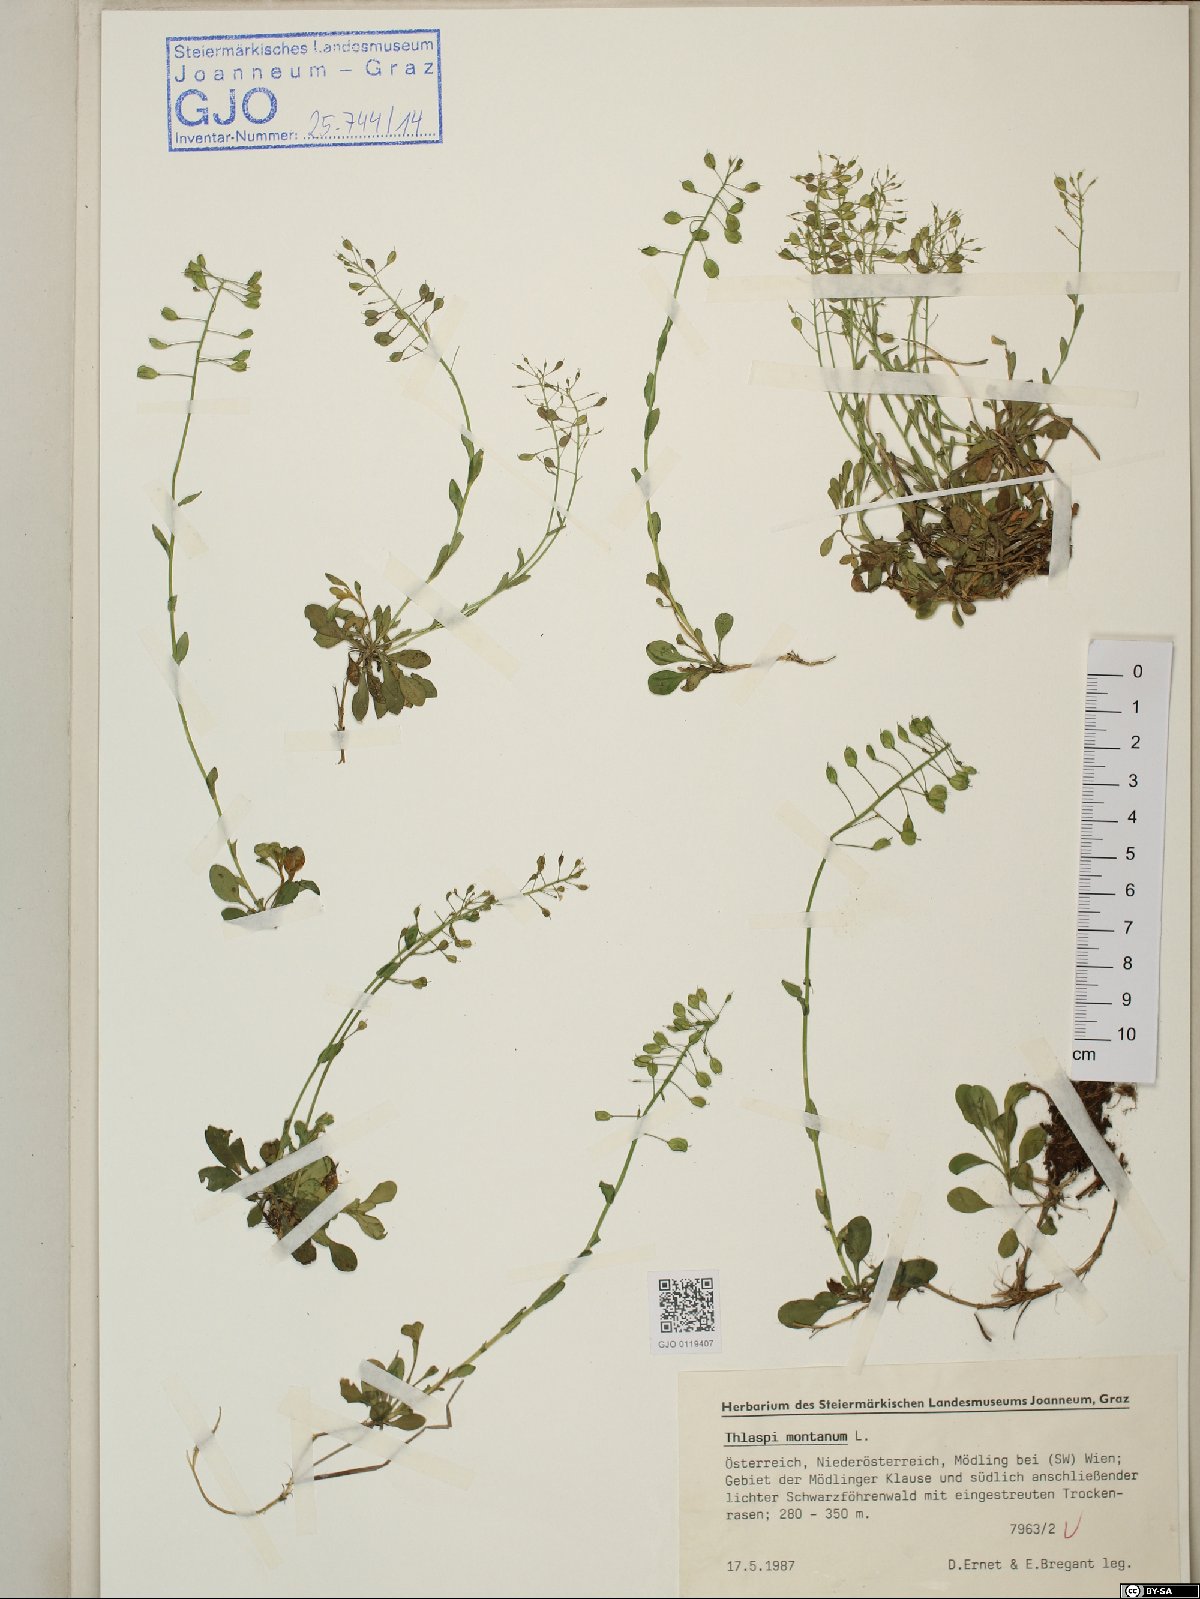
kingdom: Plantae
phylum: Tracheophyta
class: Magnoliopsida
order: Brassicales
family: Brassicaceae
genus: Noccaea
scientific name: Noccaea montana
